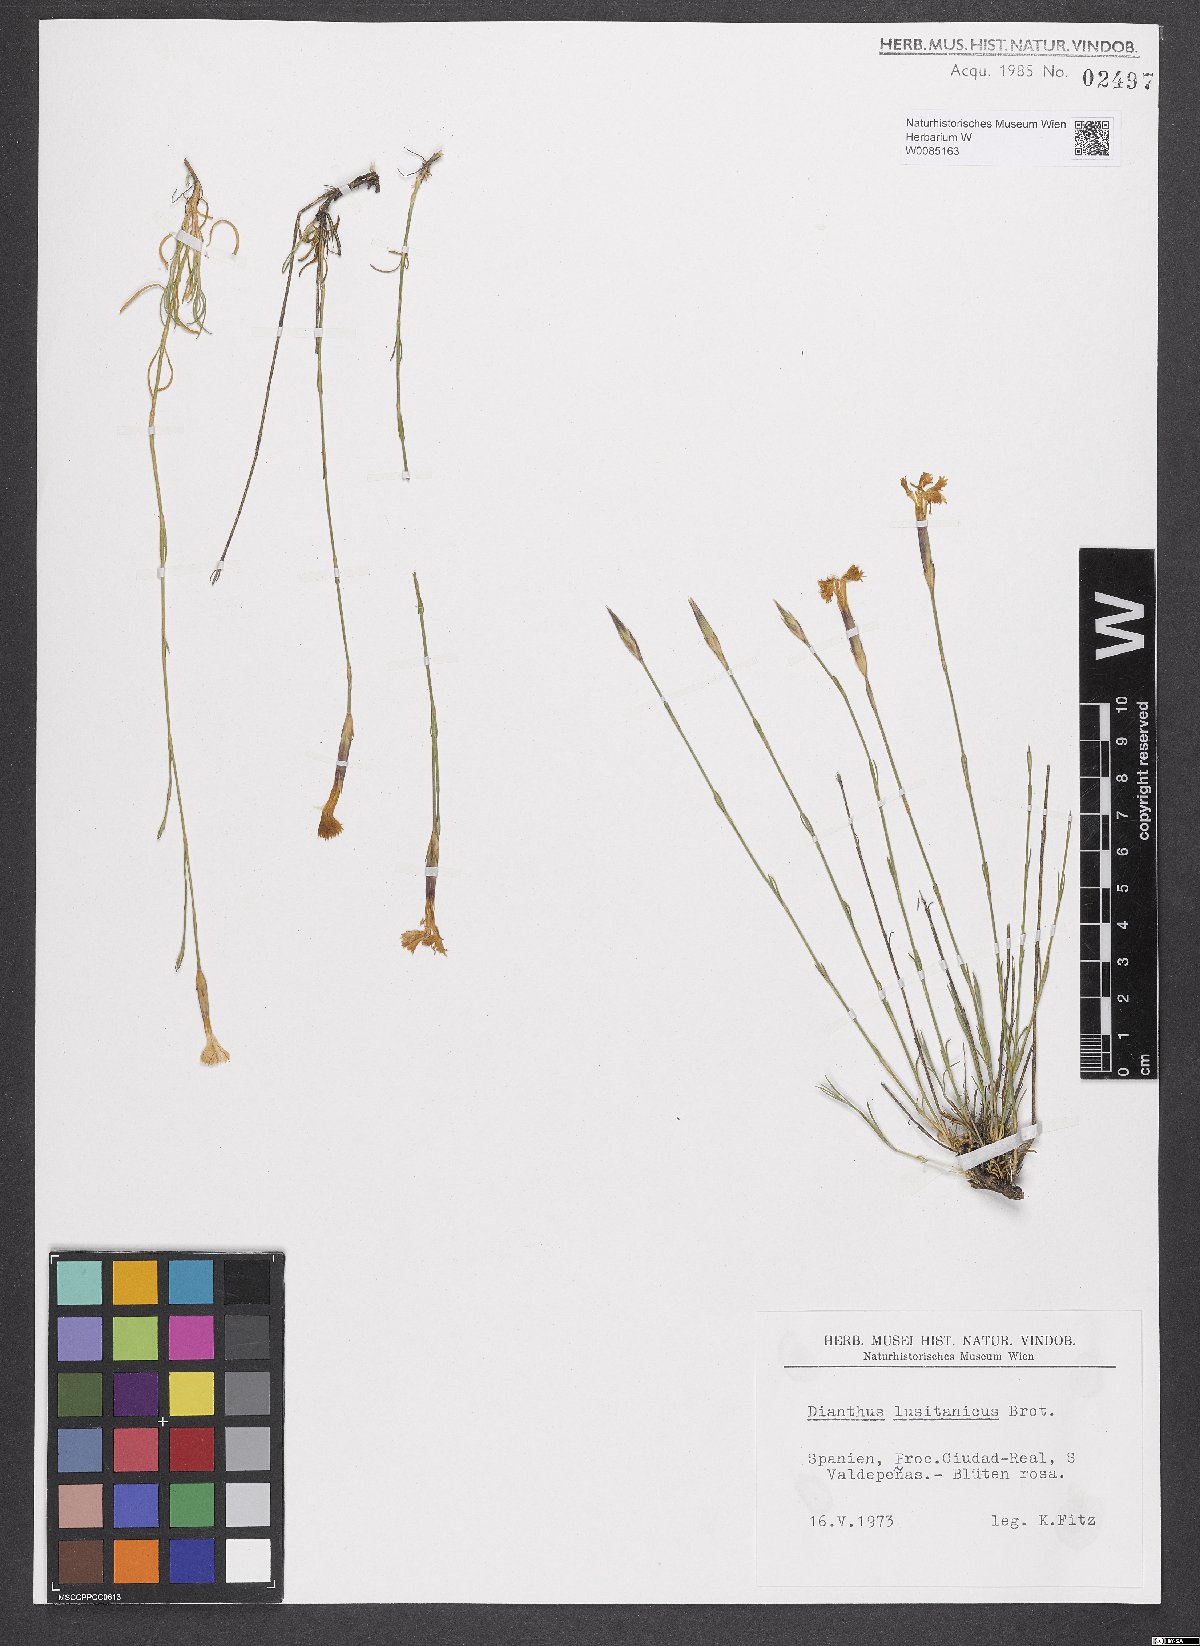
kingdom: Plantae
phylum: Tracheophyta
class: Magnoliopsida
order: Caryophyllales
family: Caryophyllaceae
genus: Dianthus
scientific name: Dianthus lusitanus
